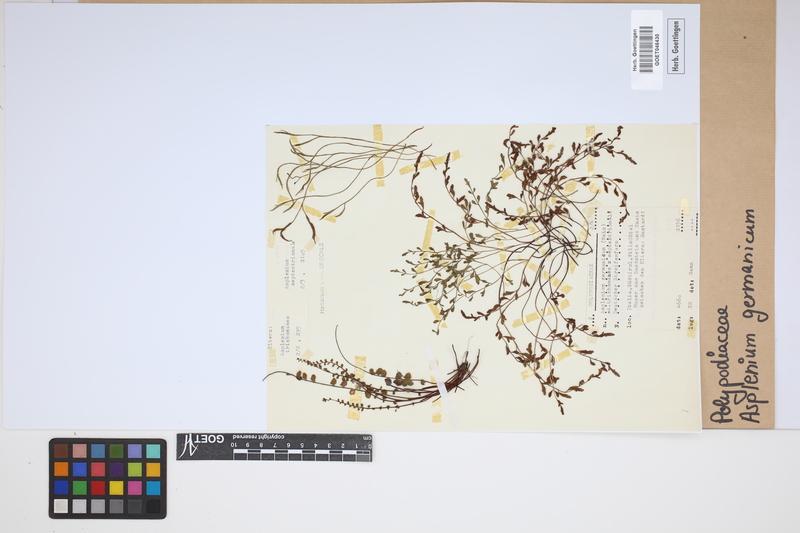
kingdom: Plantae
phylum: Tracheophyta
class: Polypodiopsida
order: Polypodiales
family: Aspleniaceae
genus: Asplenium
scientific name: Asplenium
